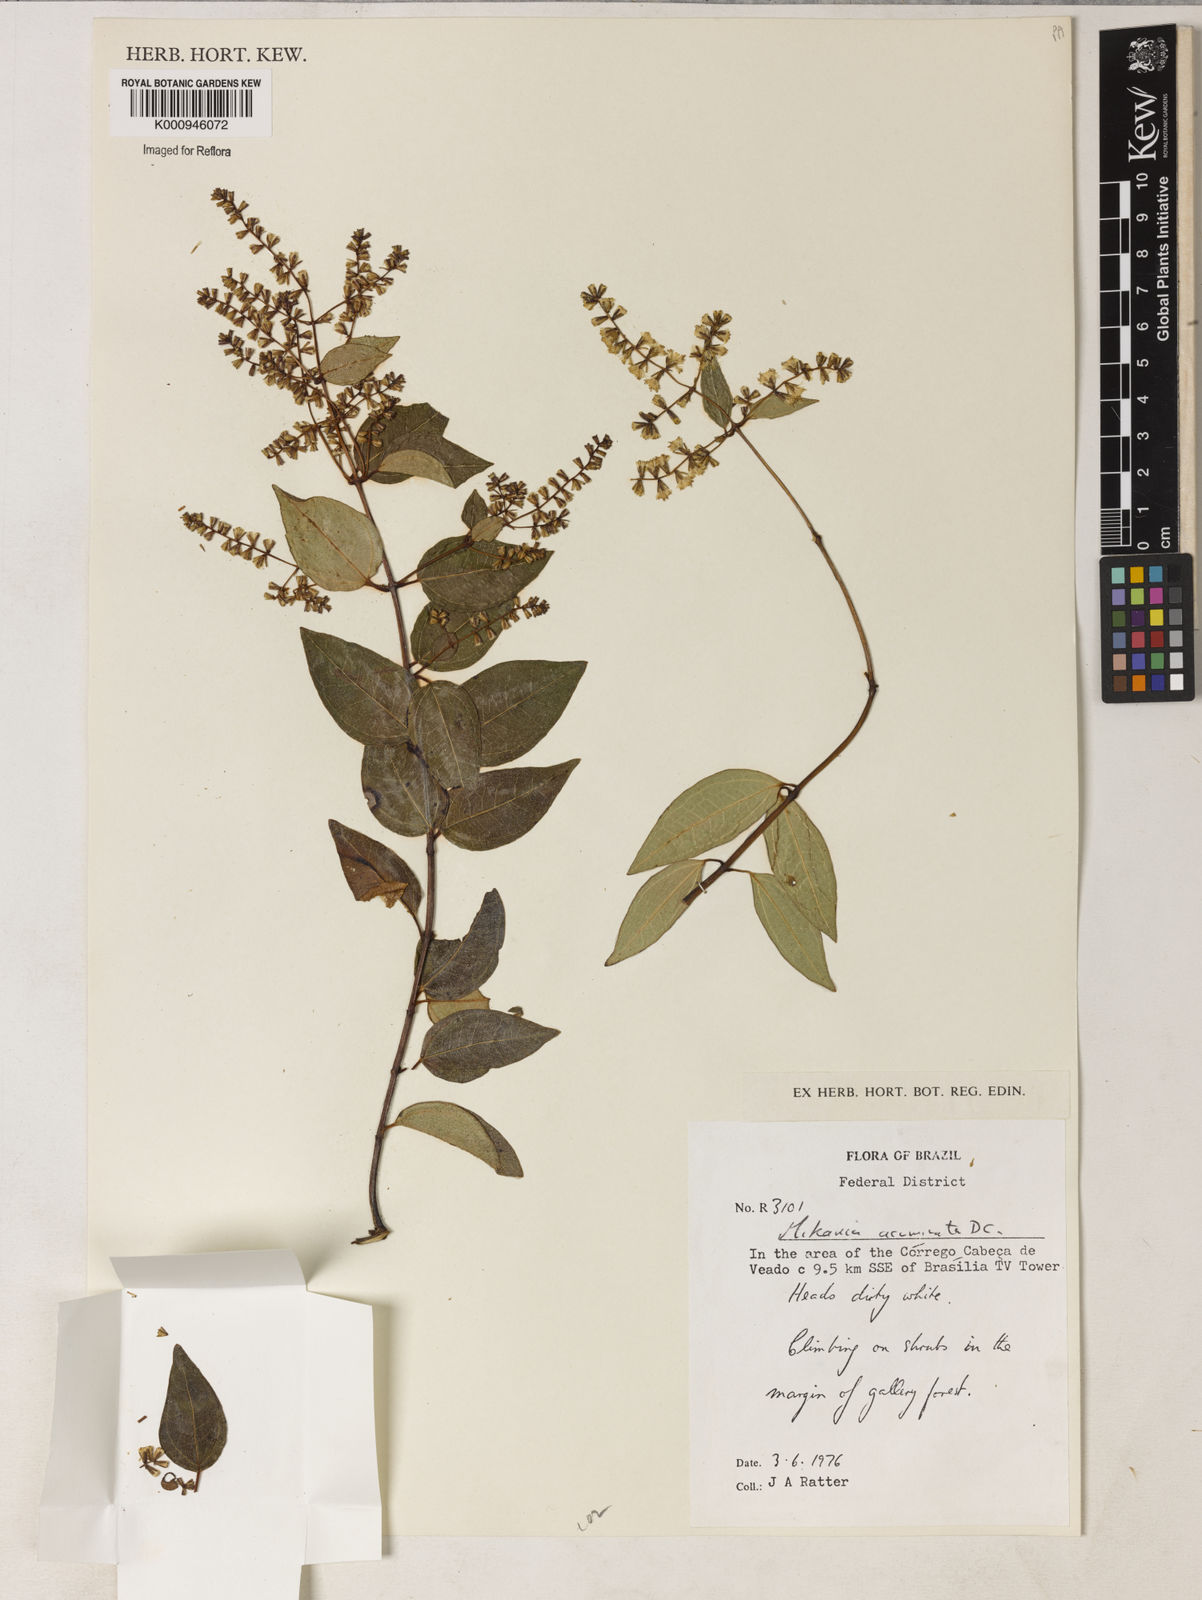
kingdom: Plantae
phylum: Tracheophyta
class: Magnoliopsida
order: Asterales
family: Asteraceae
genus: Mikania
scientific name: Mikania acuminata
